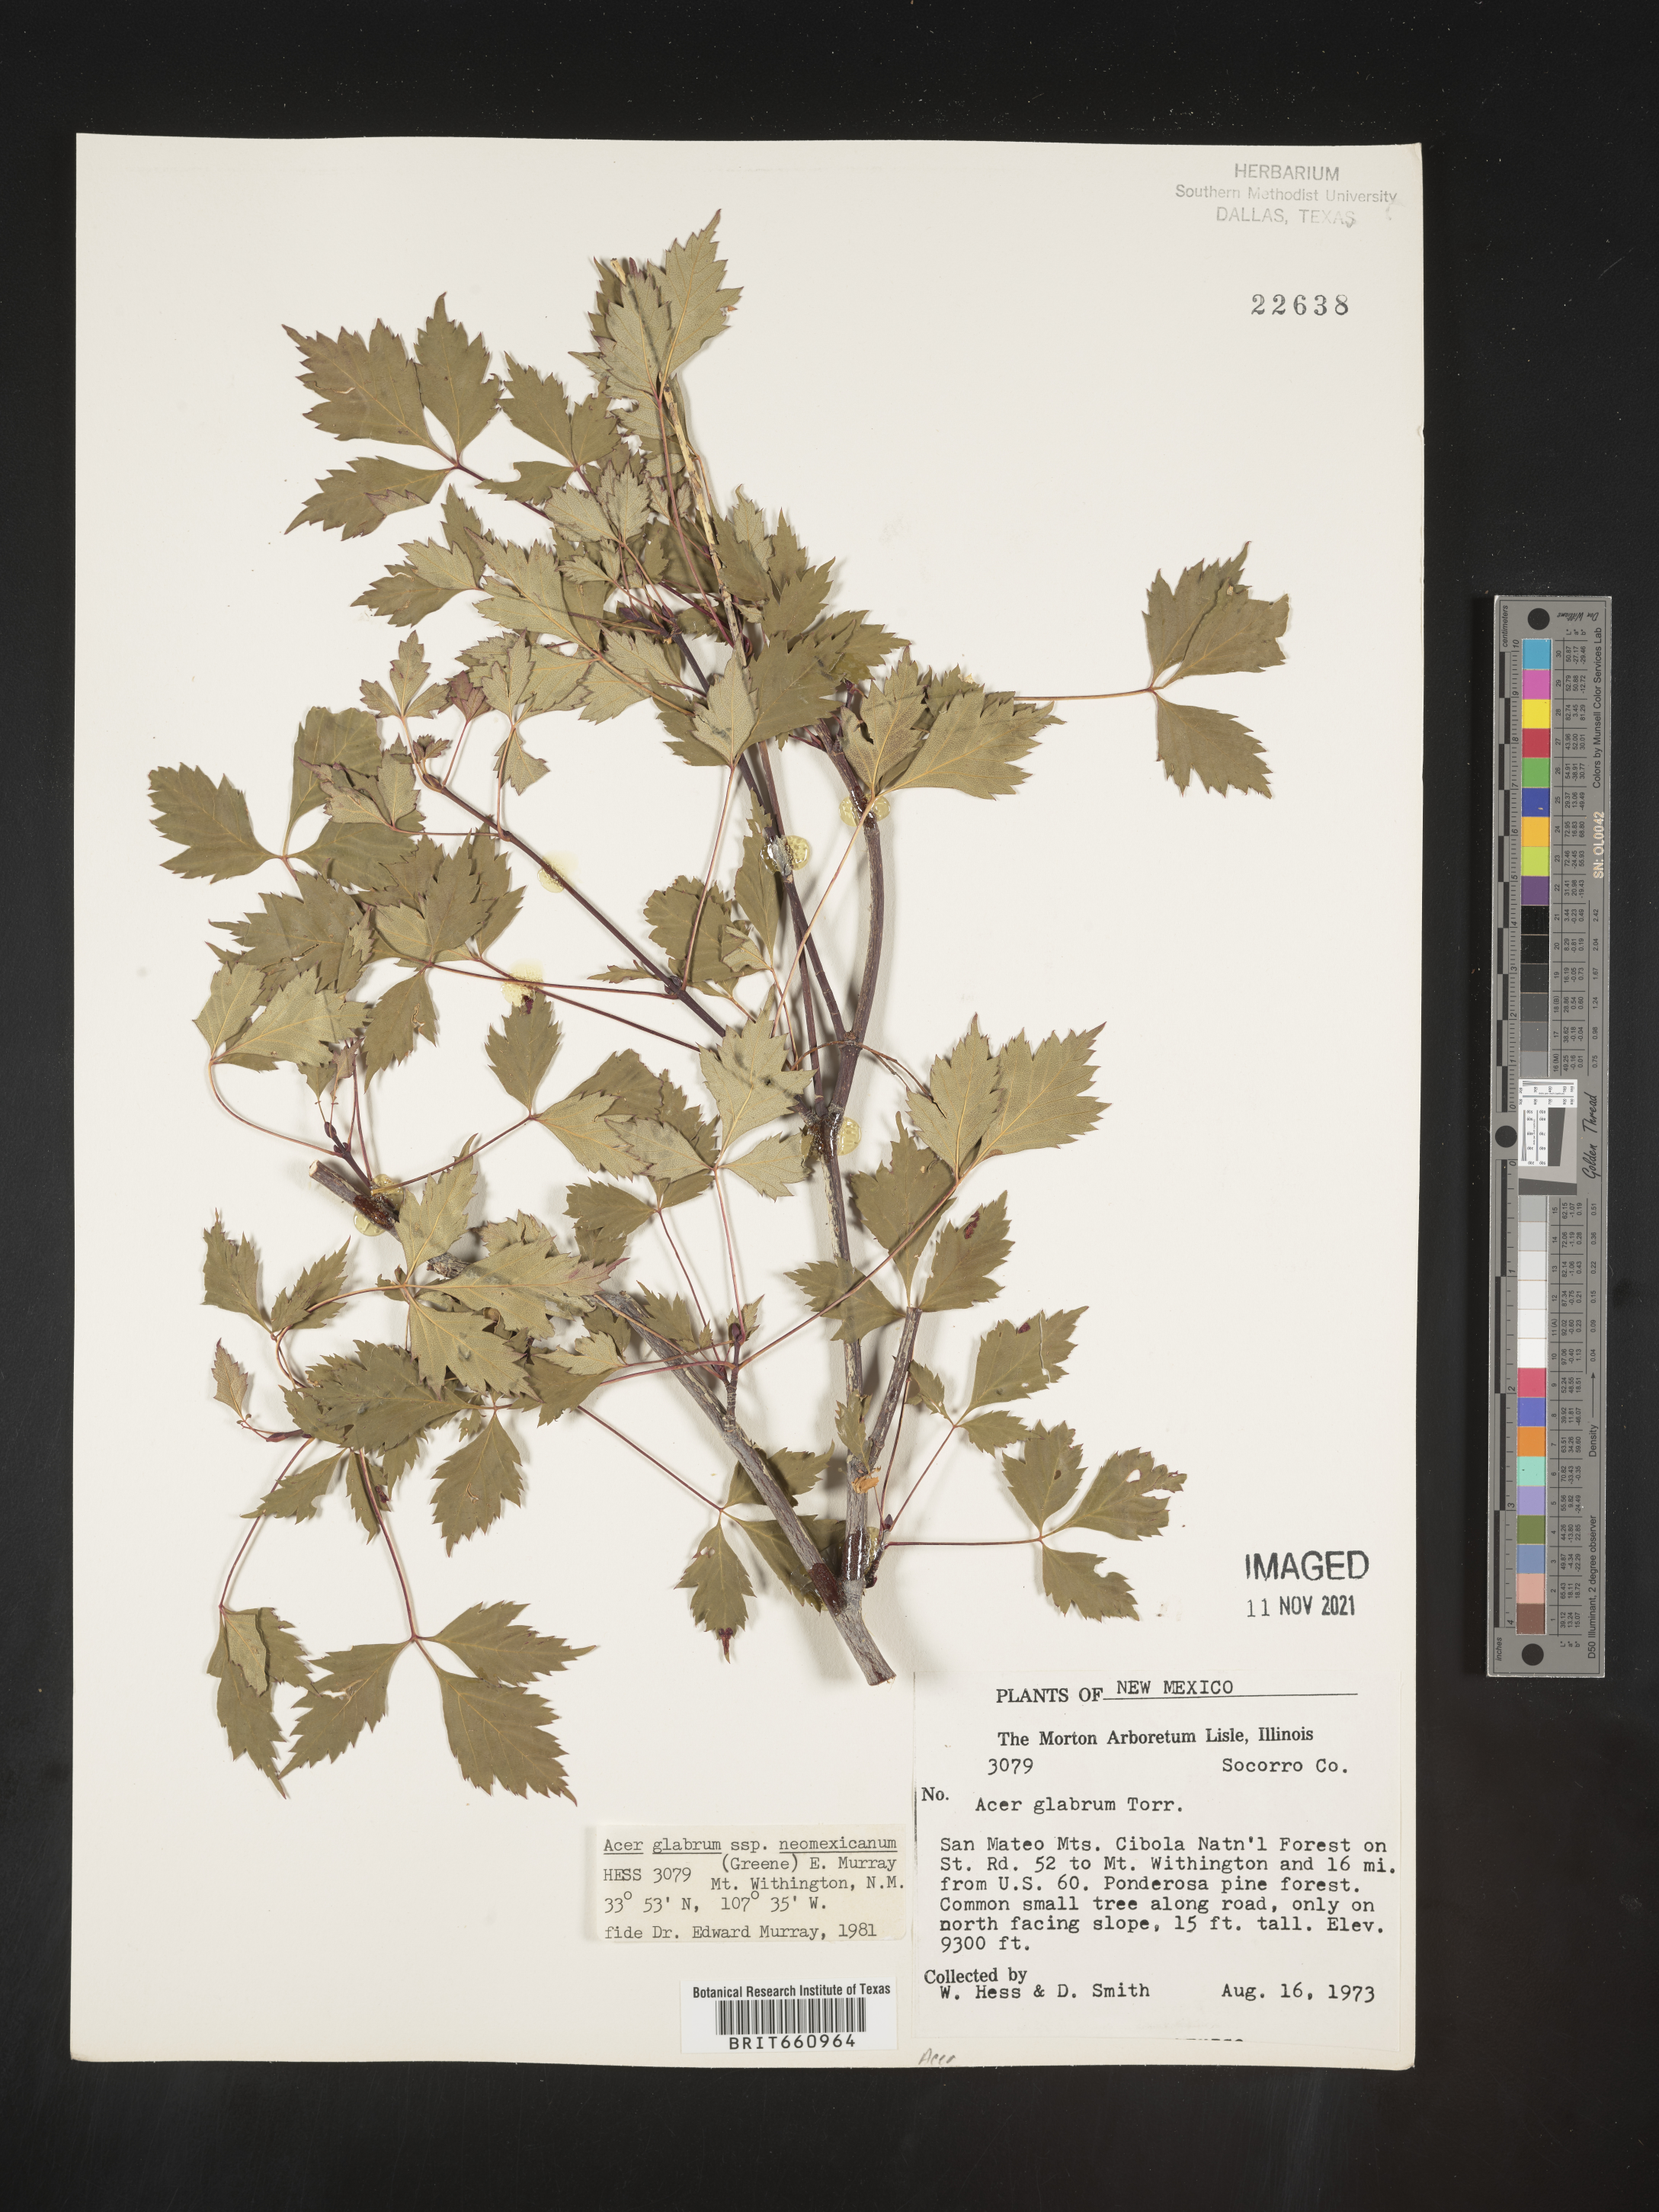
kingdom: Plantae
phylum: Tracheophyta
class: Magnoliopsida
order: Sapindales
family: Sapindaceae
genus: Acer
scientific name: Acer glabrum
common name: Rocky mountain maple
